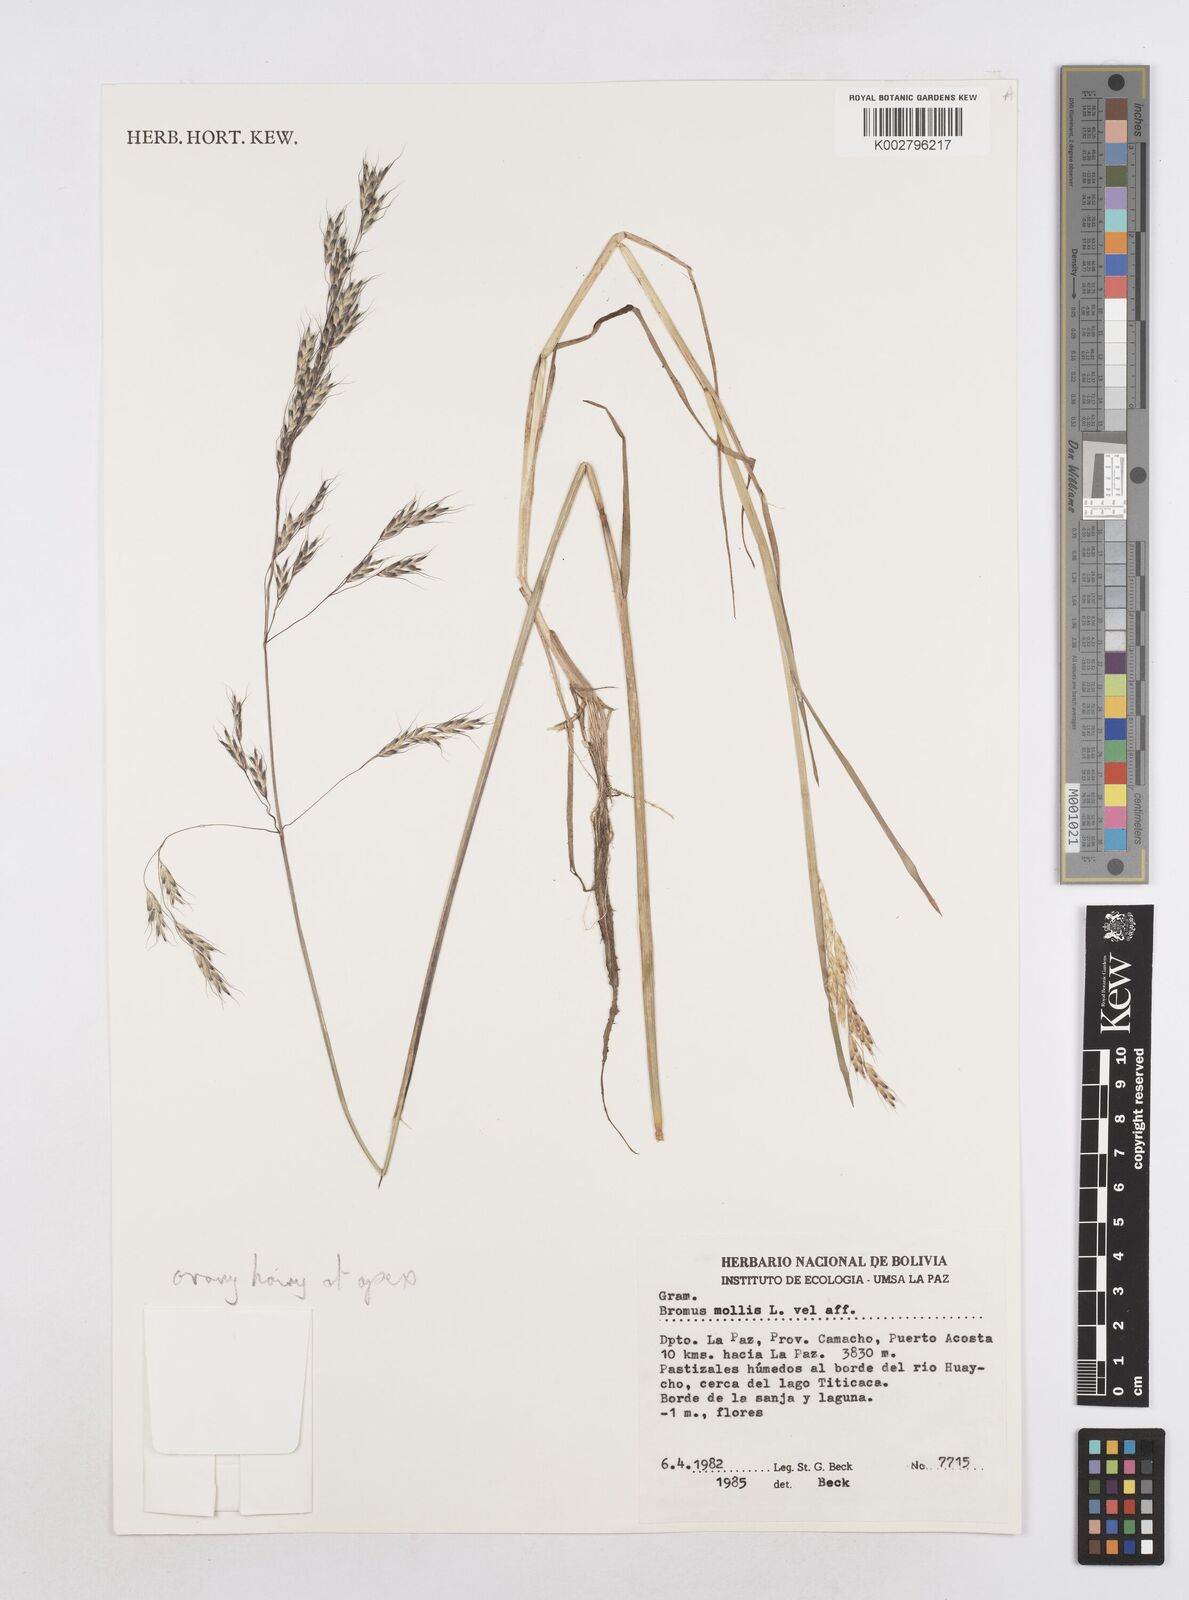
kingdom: Plantae
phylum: Tracheophyta
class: Liliopsida
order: Poales
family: Poaceae
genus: Amphibromus
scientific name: Amphibromus scabrivalvis
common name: Swamp wallaby grass
